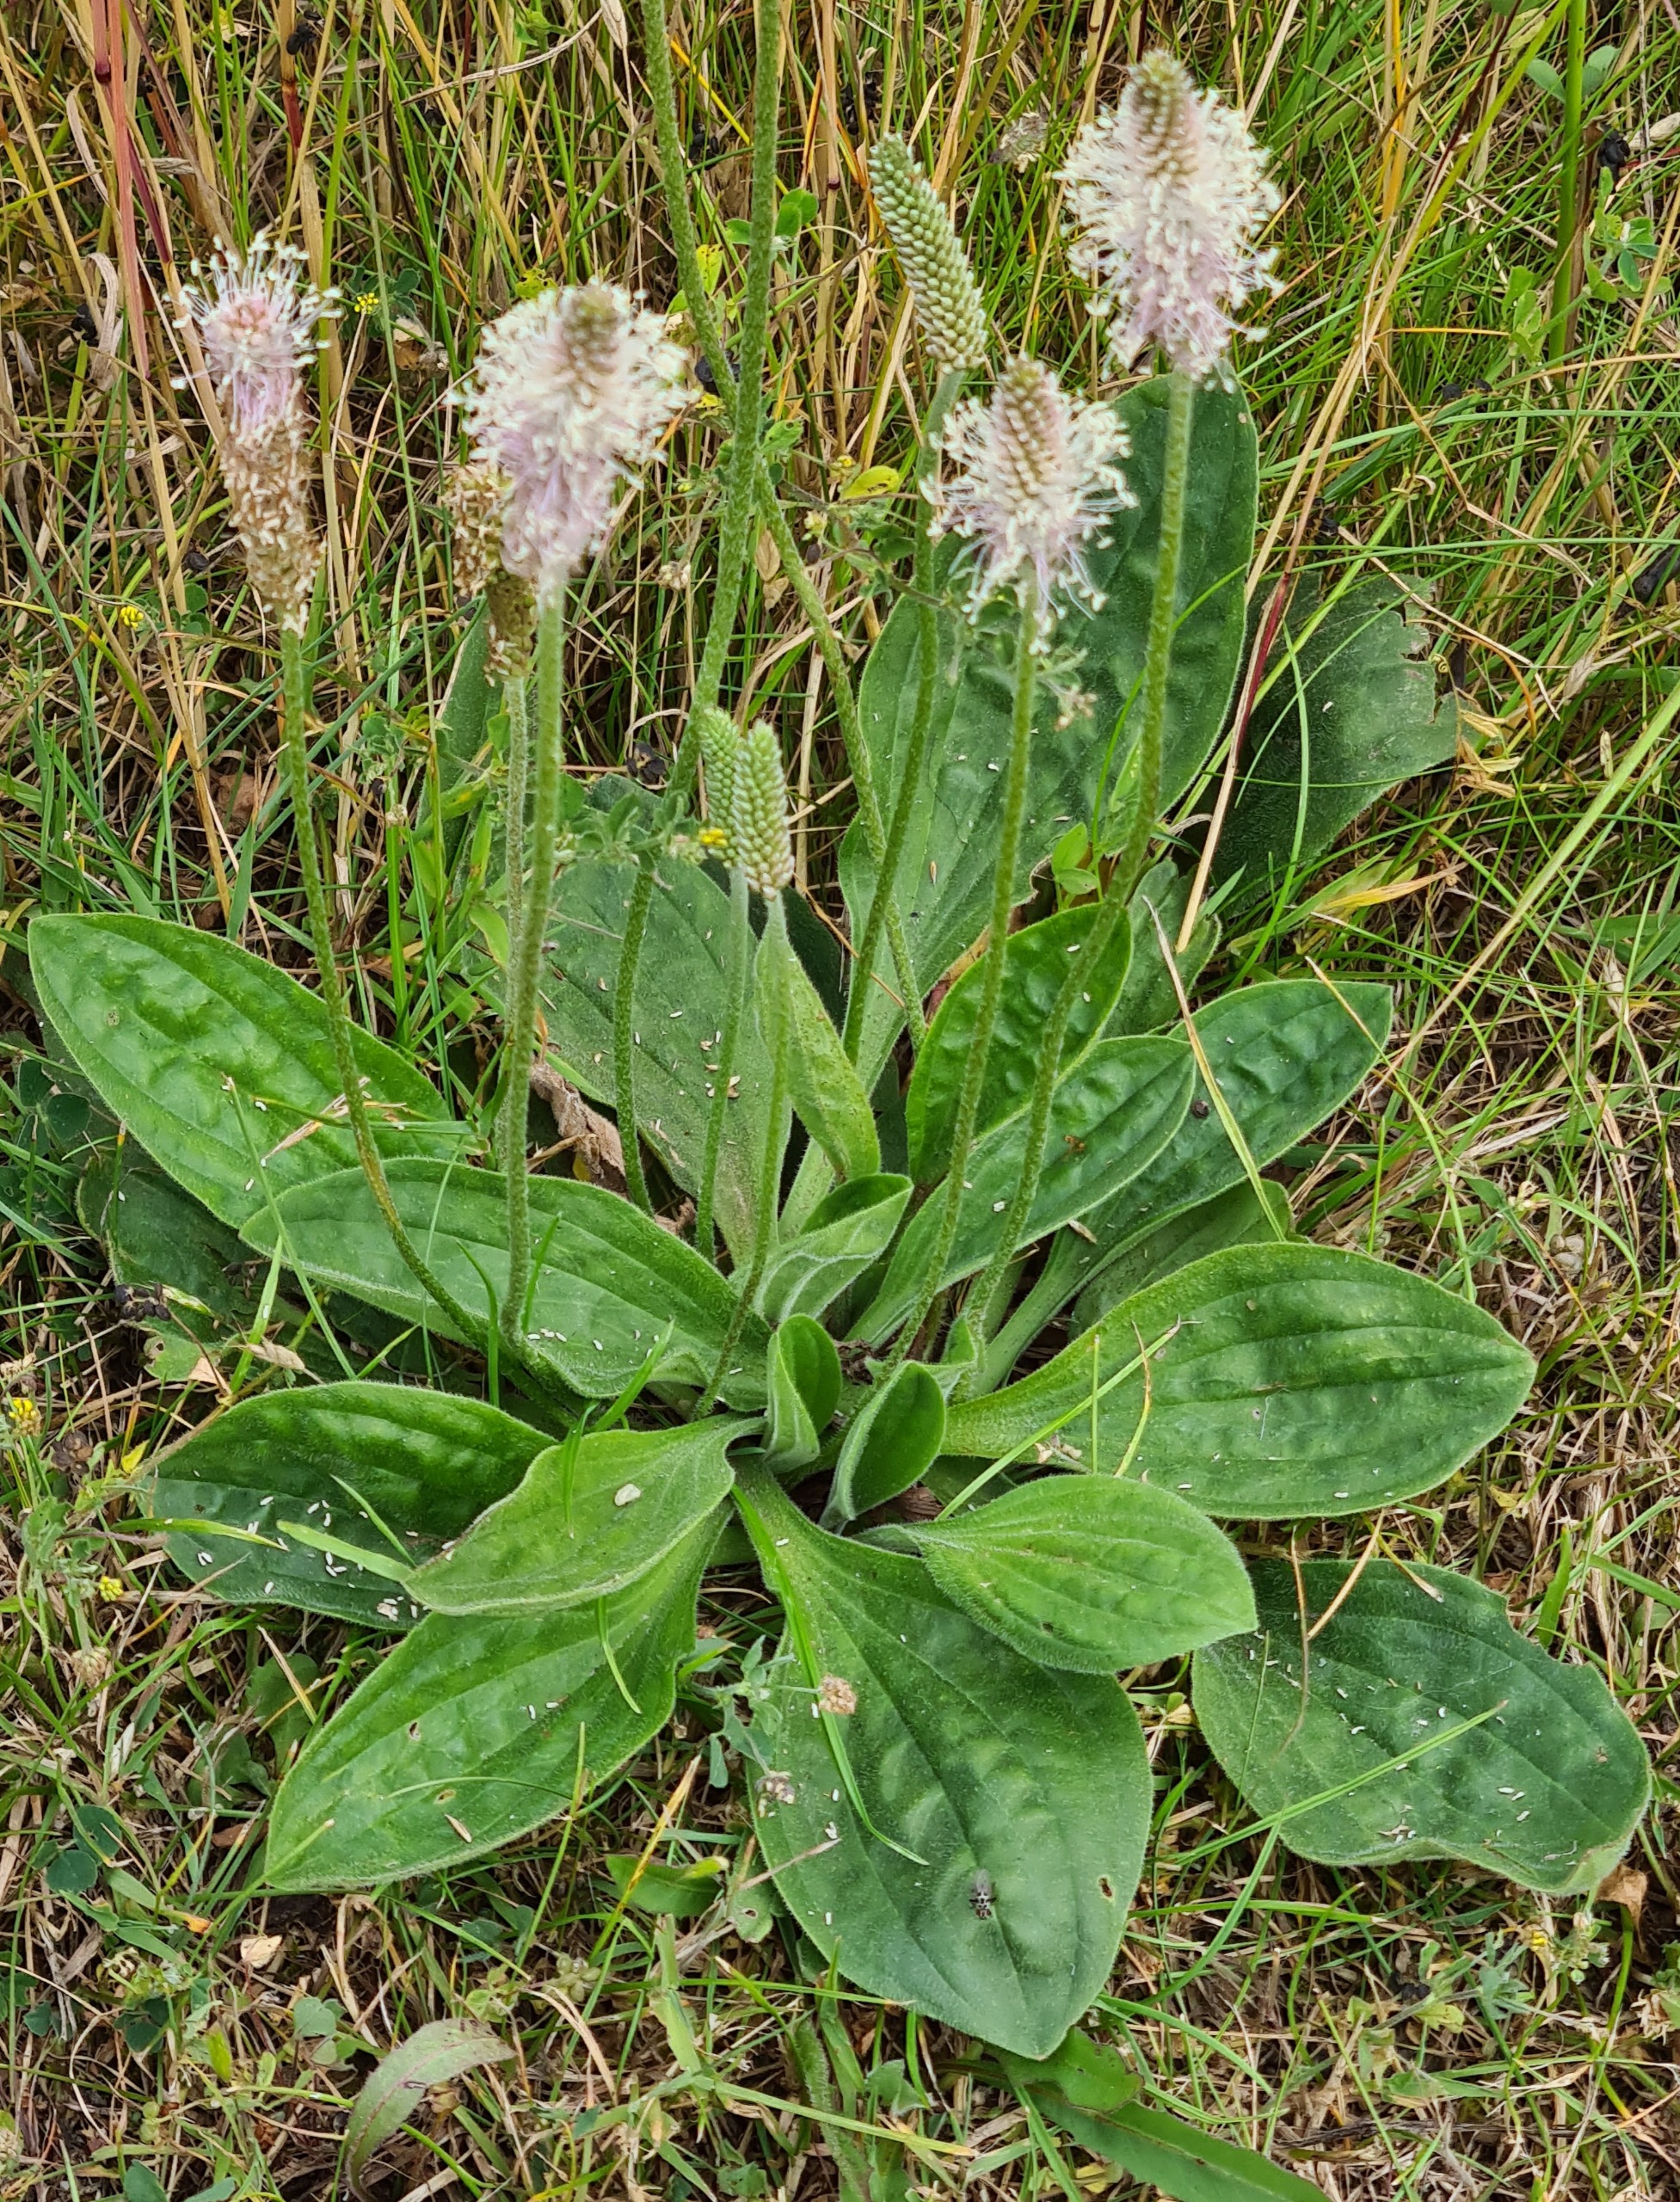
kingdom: Plantae
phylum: Tracheophyta
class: Magnoliopsida
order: Lamiales
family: Plantaginaceae
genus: Plantago
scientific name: Plantago media
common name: Dunet vejbred
